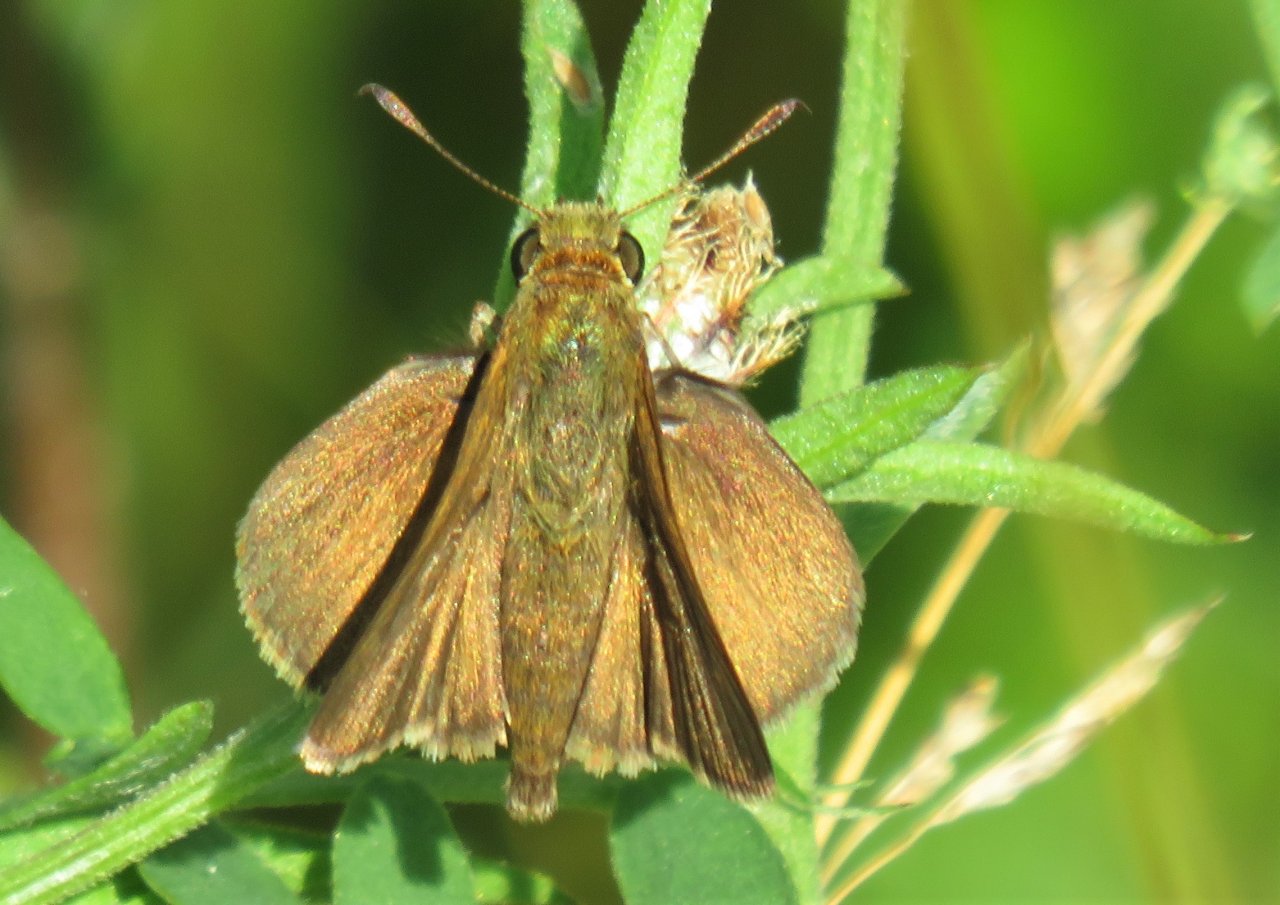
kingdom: Animalia
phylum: Arthropoda
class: Insecta
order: Lepidoptera
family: Hesperiidae
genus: Euphyes
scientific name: Euphyes vestris
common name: Dun Skipper
